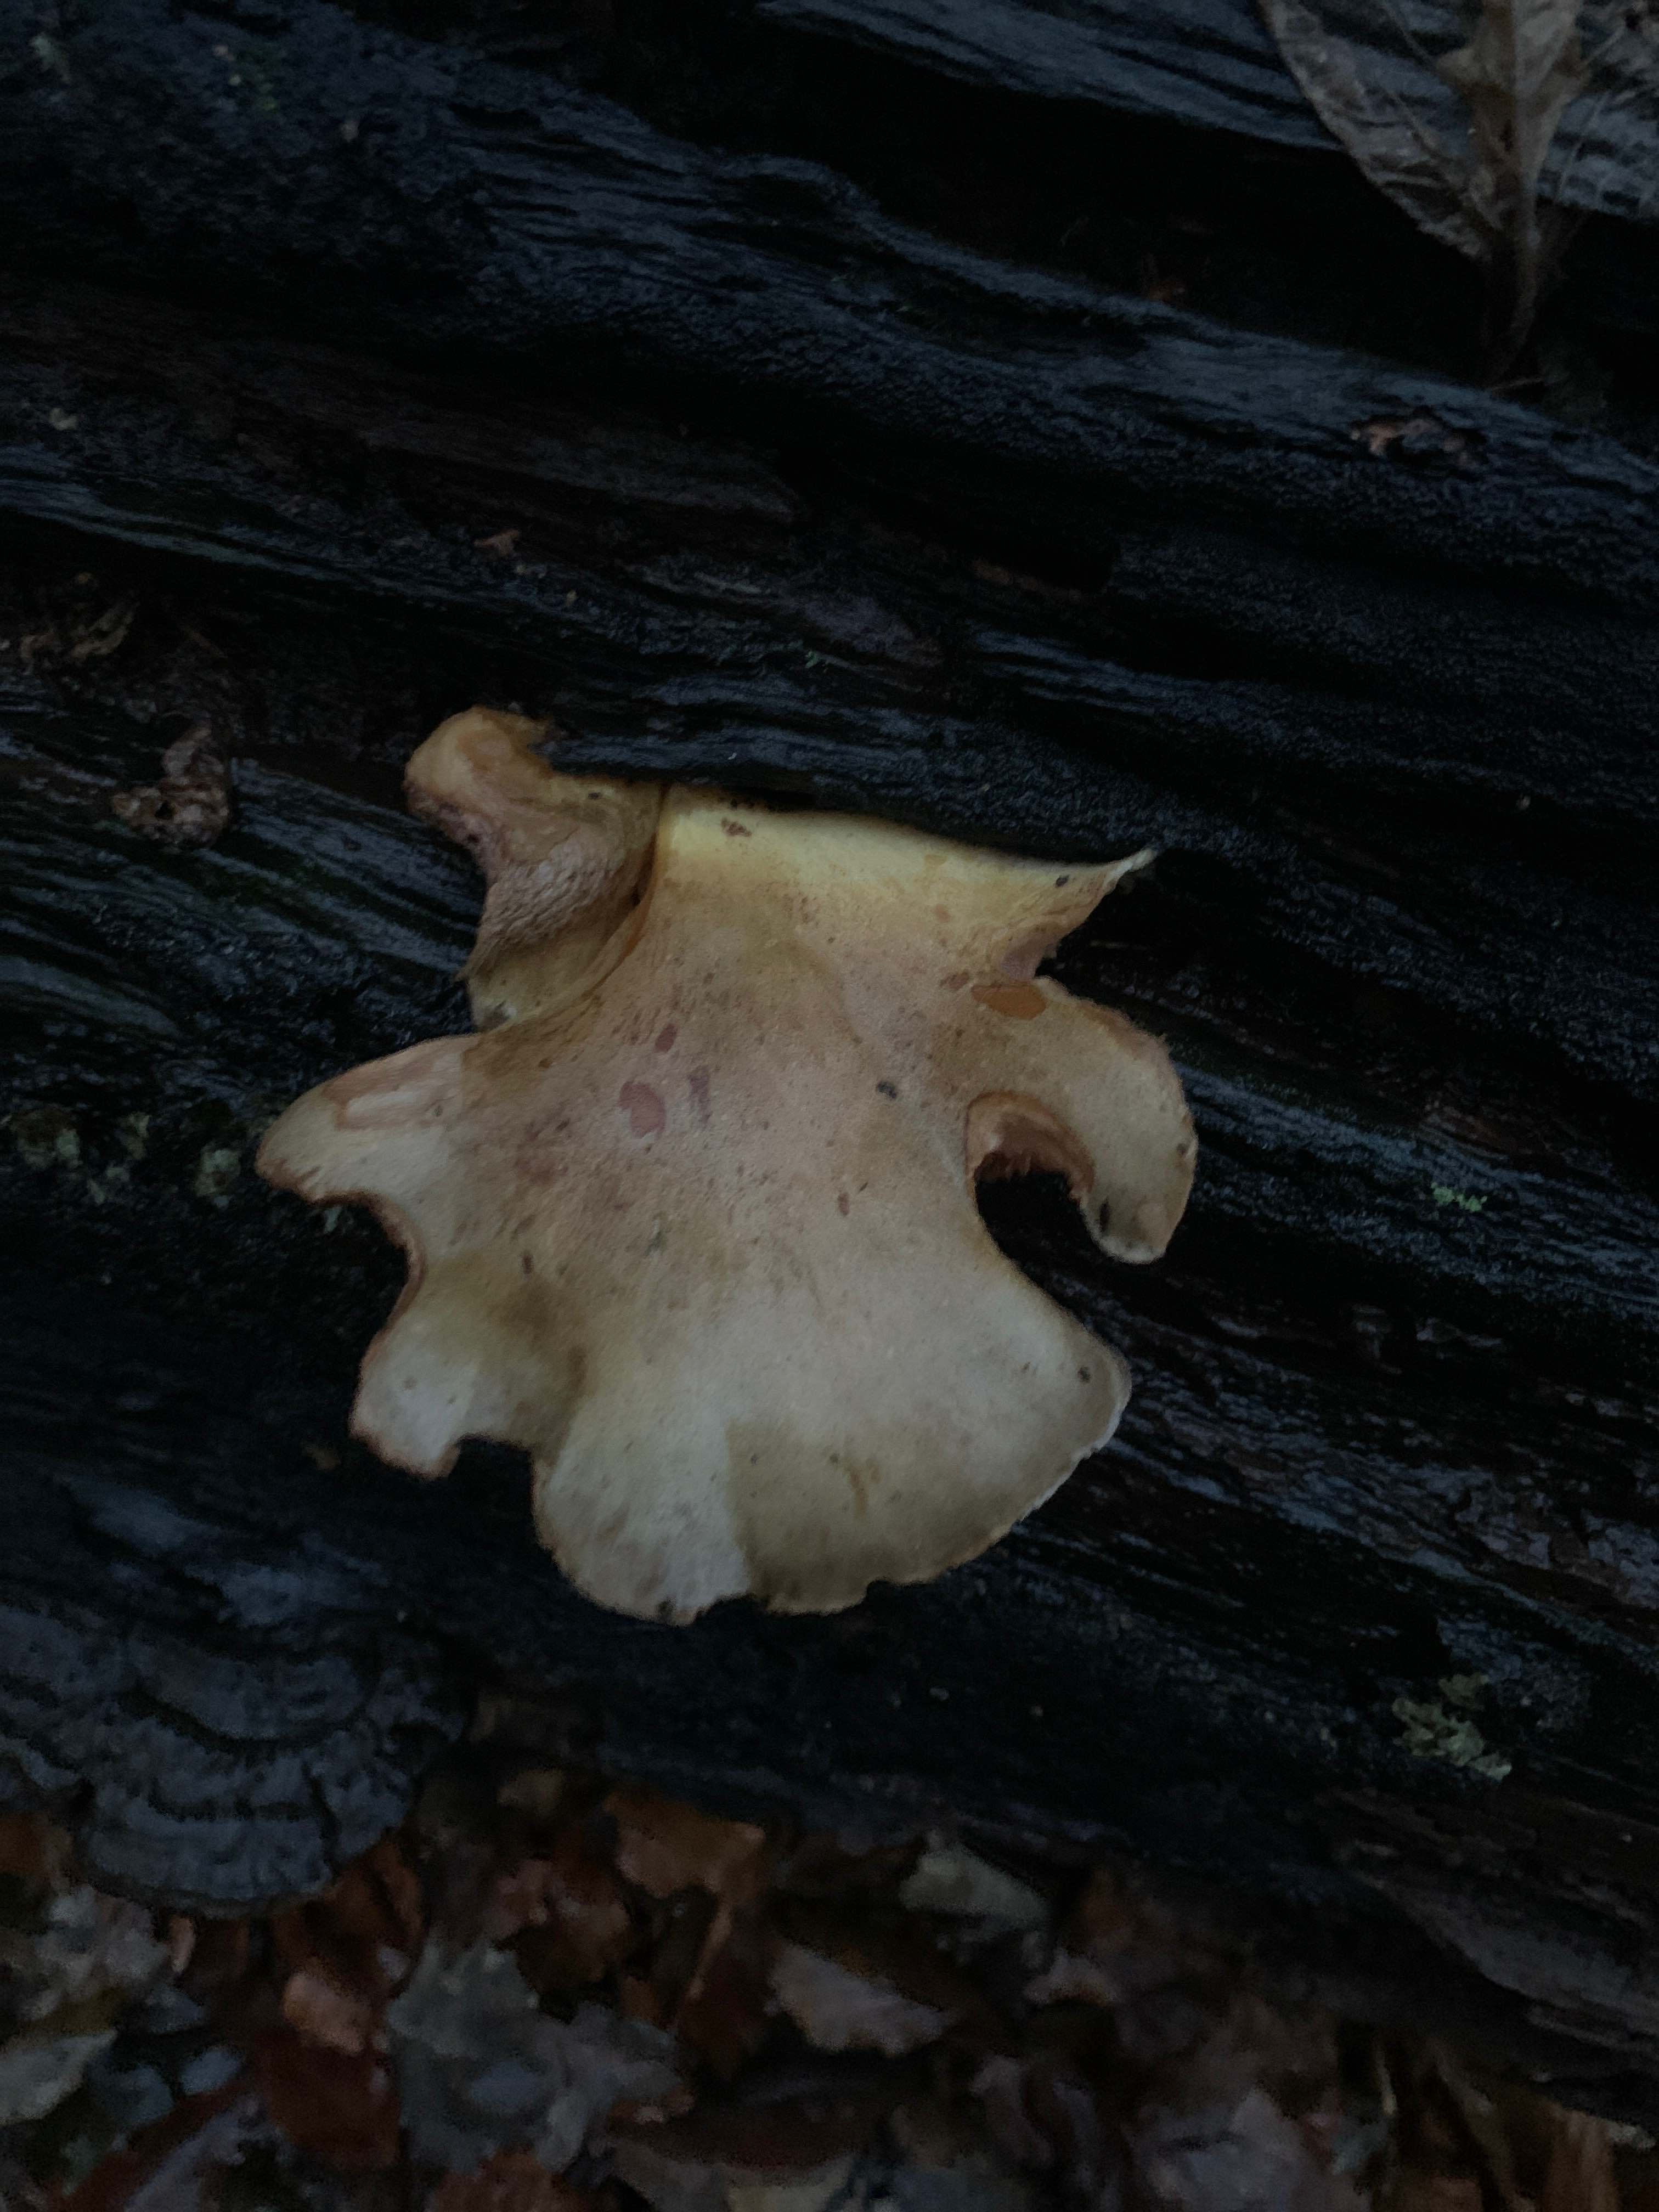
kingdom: Fungi
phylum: Basidiomycota
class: Agaricomycetes
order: Agaricales
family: Sarcomyxaceae
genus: Sarcomyxa
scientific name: Sarcomyxa serotina
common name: gummihat
